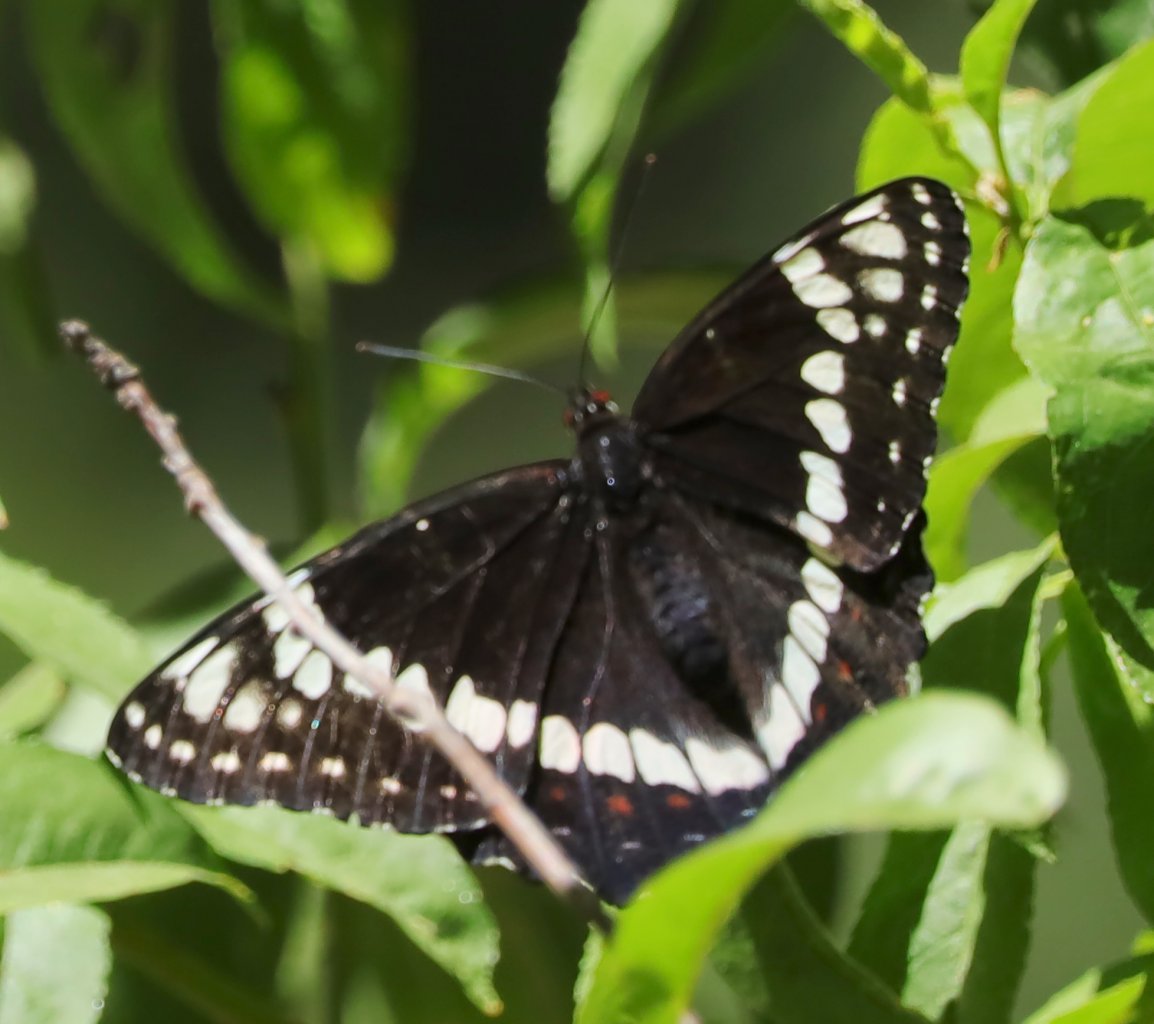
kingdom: Animalia
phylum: Arthropoda
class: Insecta
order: Lepidoptera
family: Nymphalidae
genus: Limenitis
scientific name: Limenitis weidemeyerii
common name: Weidemeyer's Admiral
